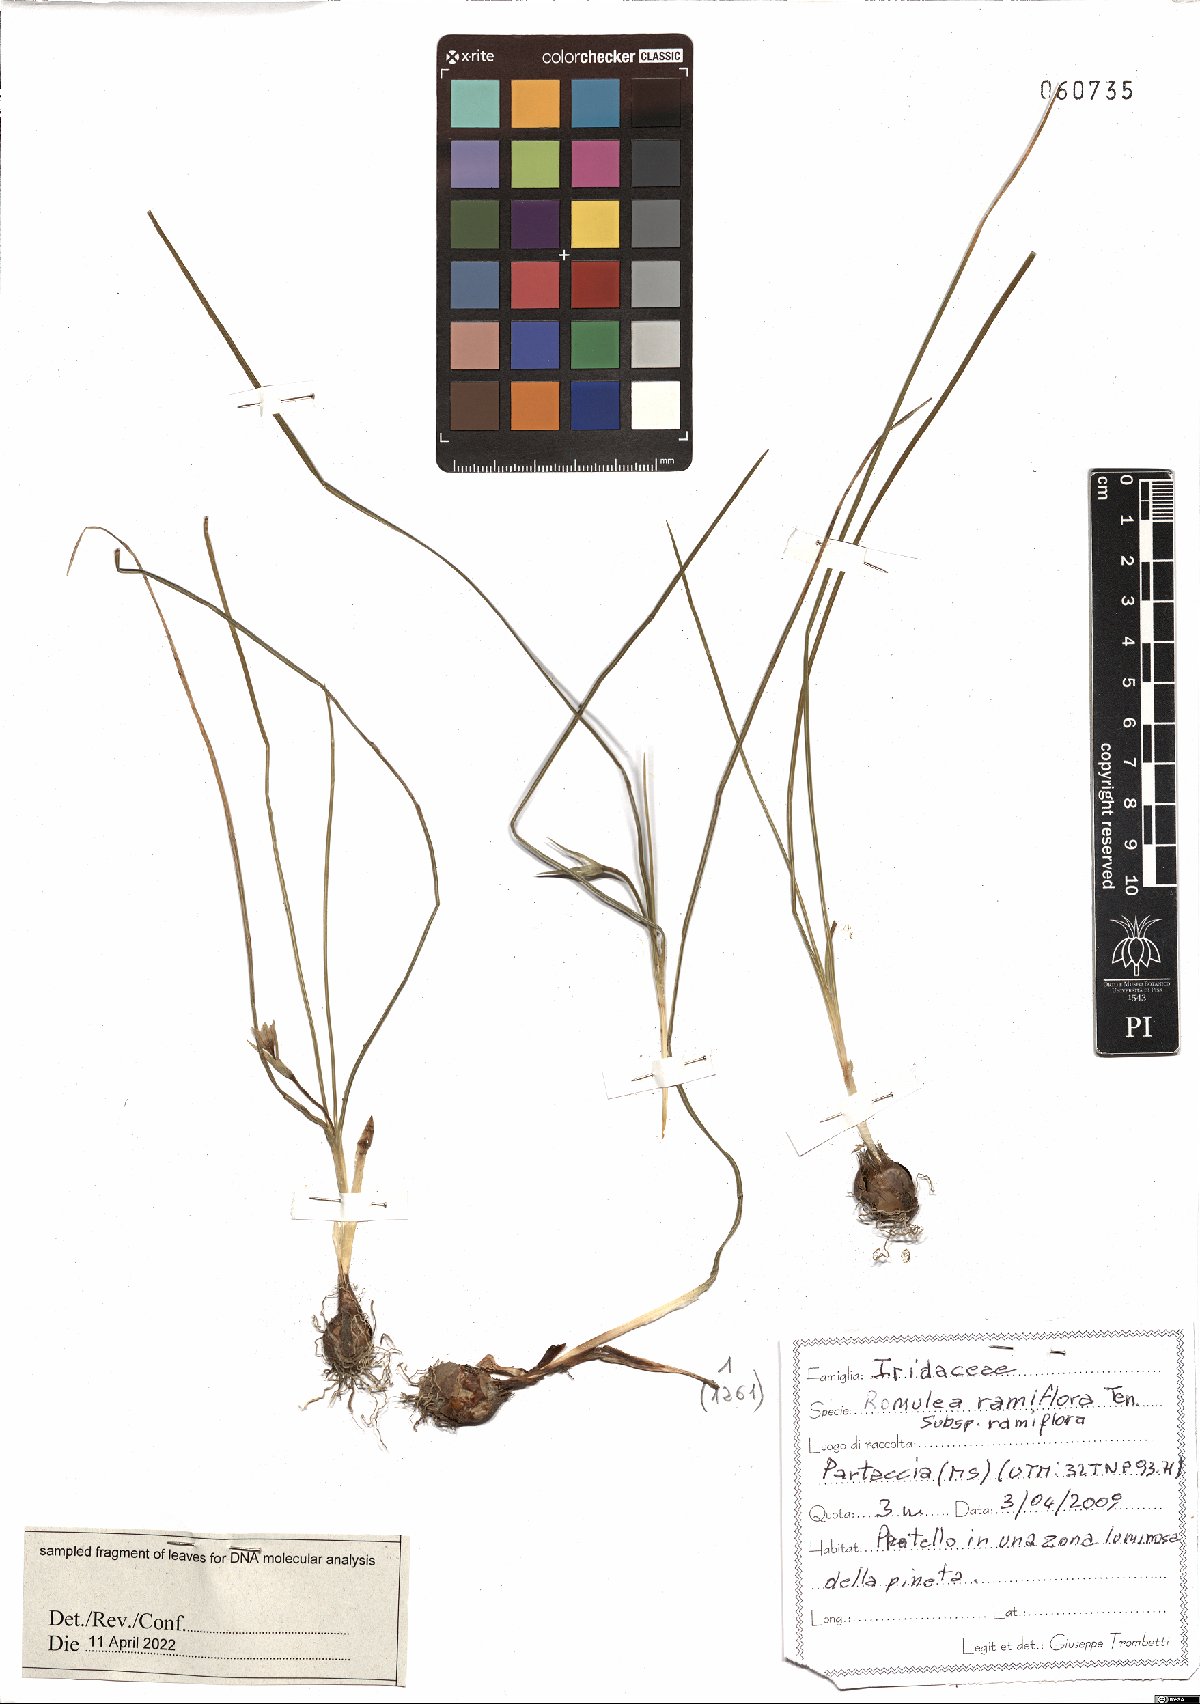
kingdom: Plantae
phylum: Tracheophyta
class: Liliopsida
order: Asparagales
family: Iridaceae
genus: Romulea
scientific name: Romulea ramiflora
